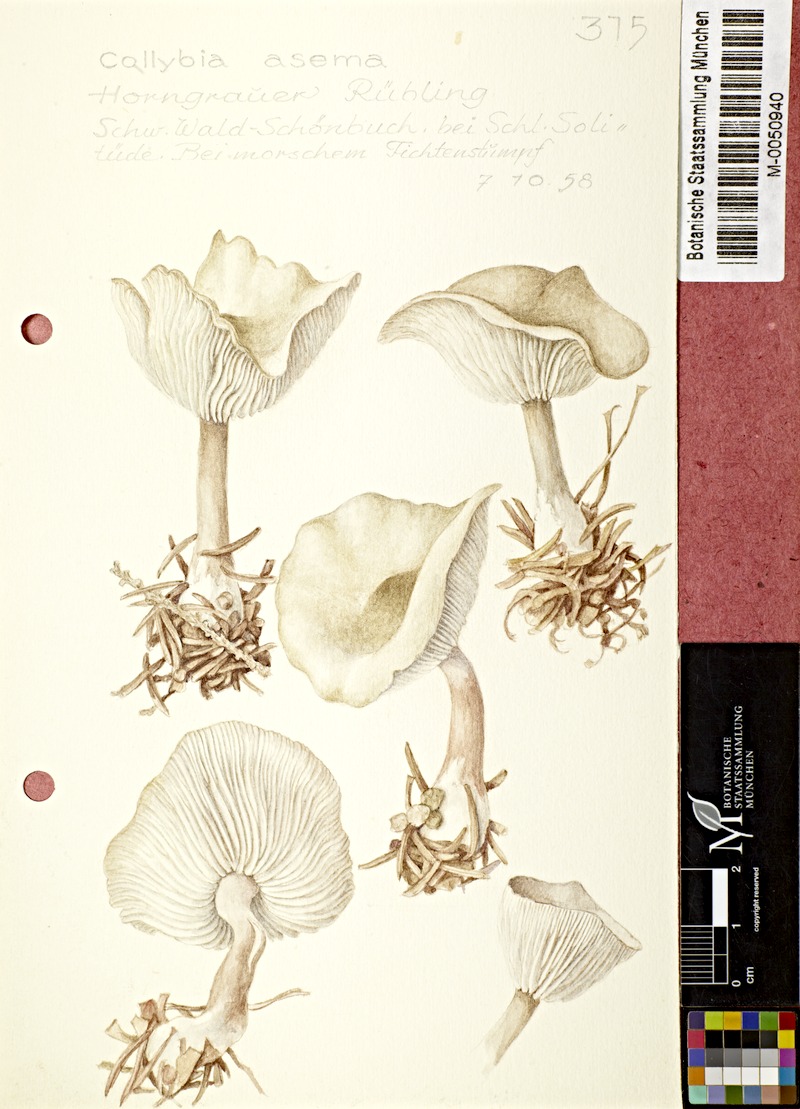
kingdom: Fungi
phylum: Basidiomycota
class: Agaricomycetes
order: Agaricales
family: Omphalotaceae
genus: Rhodocollybia
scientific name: Rhodocollybia asema
